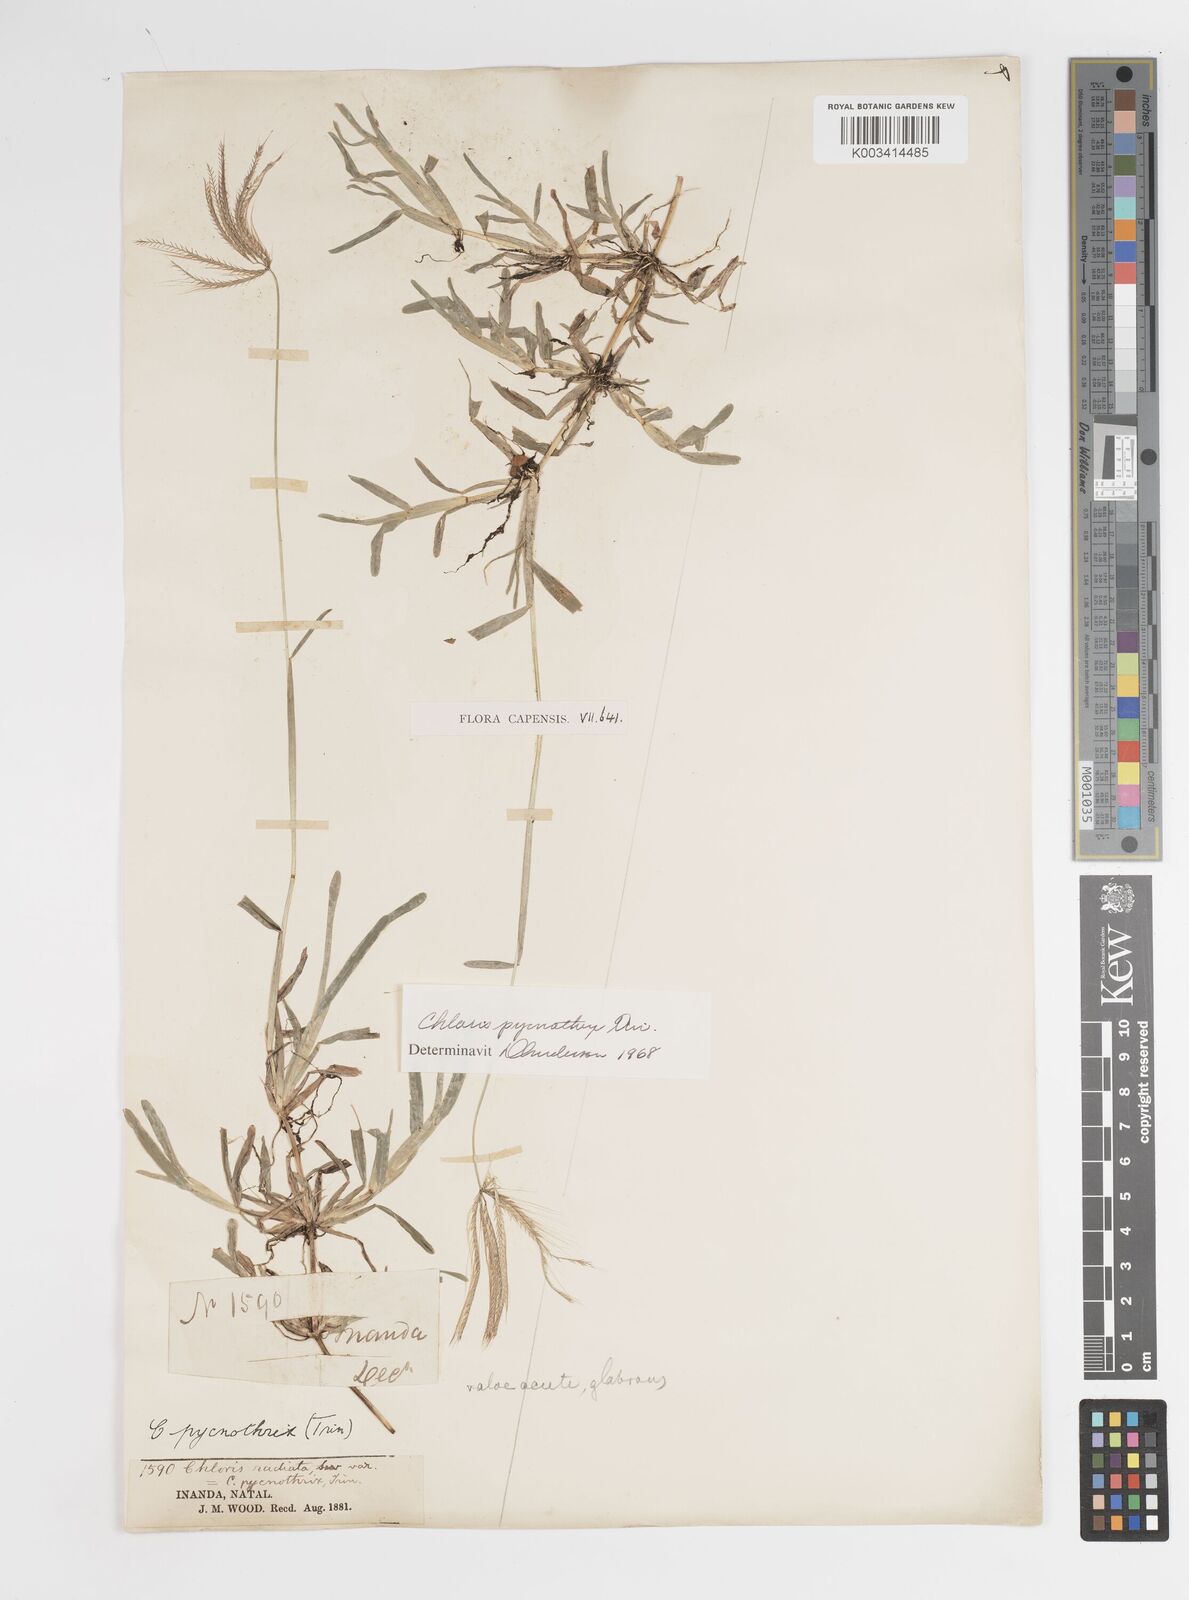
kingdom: Plantae
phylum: Tracheophyta
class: Liliopsida
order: Poales
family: Poaceae
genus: Chloris
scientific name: Chloris pycnothrix
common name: Spiderweb chloris
